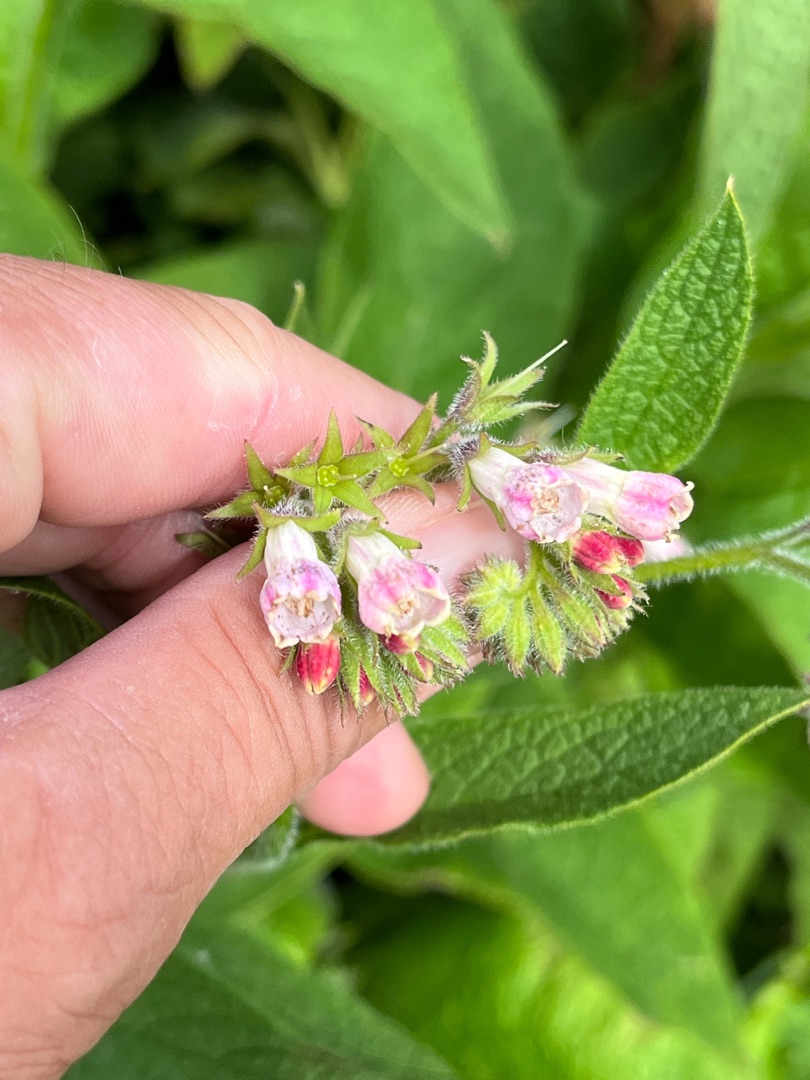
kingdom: Plantae
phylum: Tracheophyta
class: Magnoliopsida
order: Boraginales
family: Boraginaceae
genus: Symphytum
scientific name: Symphytum uplandicum
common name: Foder-kulsukker
